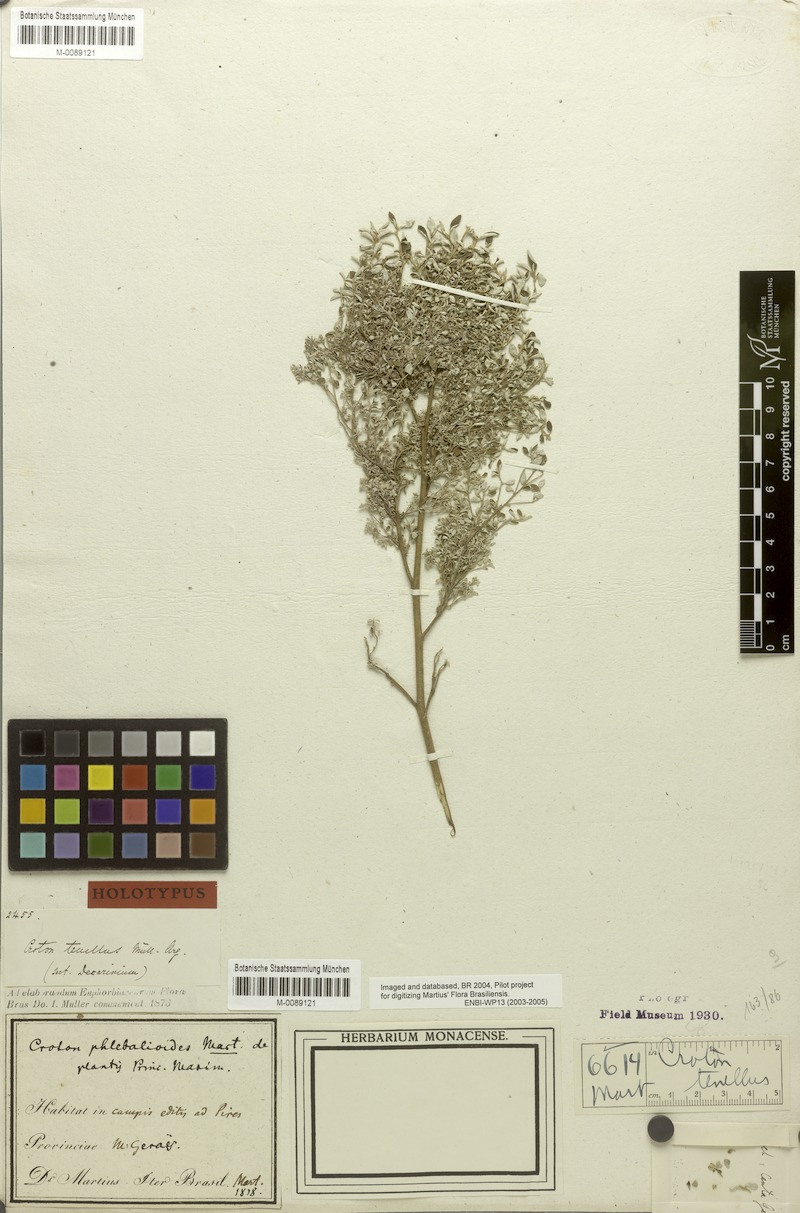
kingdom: Plantae
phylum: Tracheophyta
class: Magnoliopsida
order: Malpighiales
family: Euphorbiaceae
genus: Croton
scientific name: Croton tenellus
